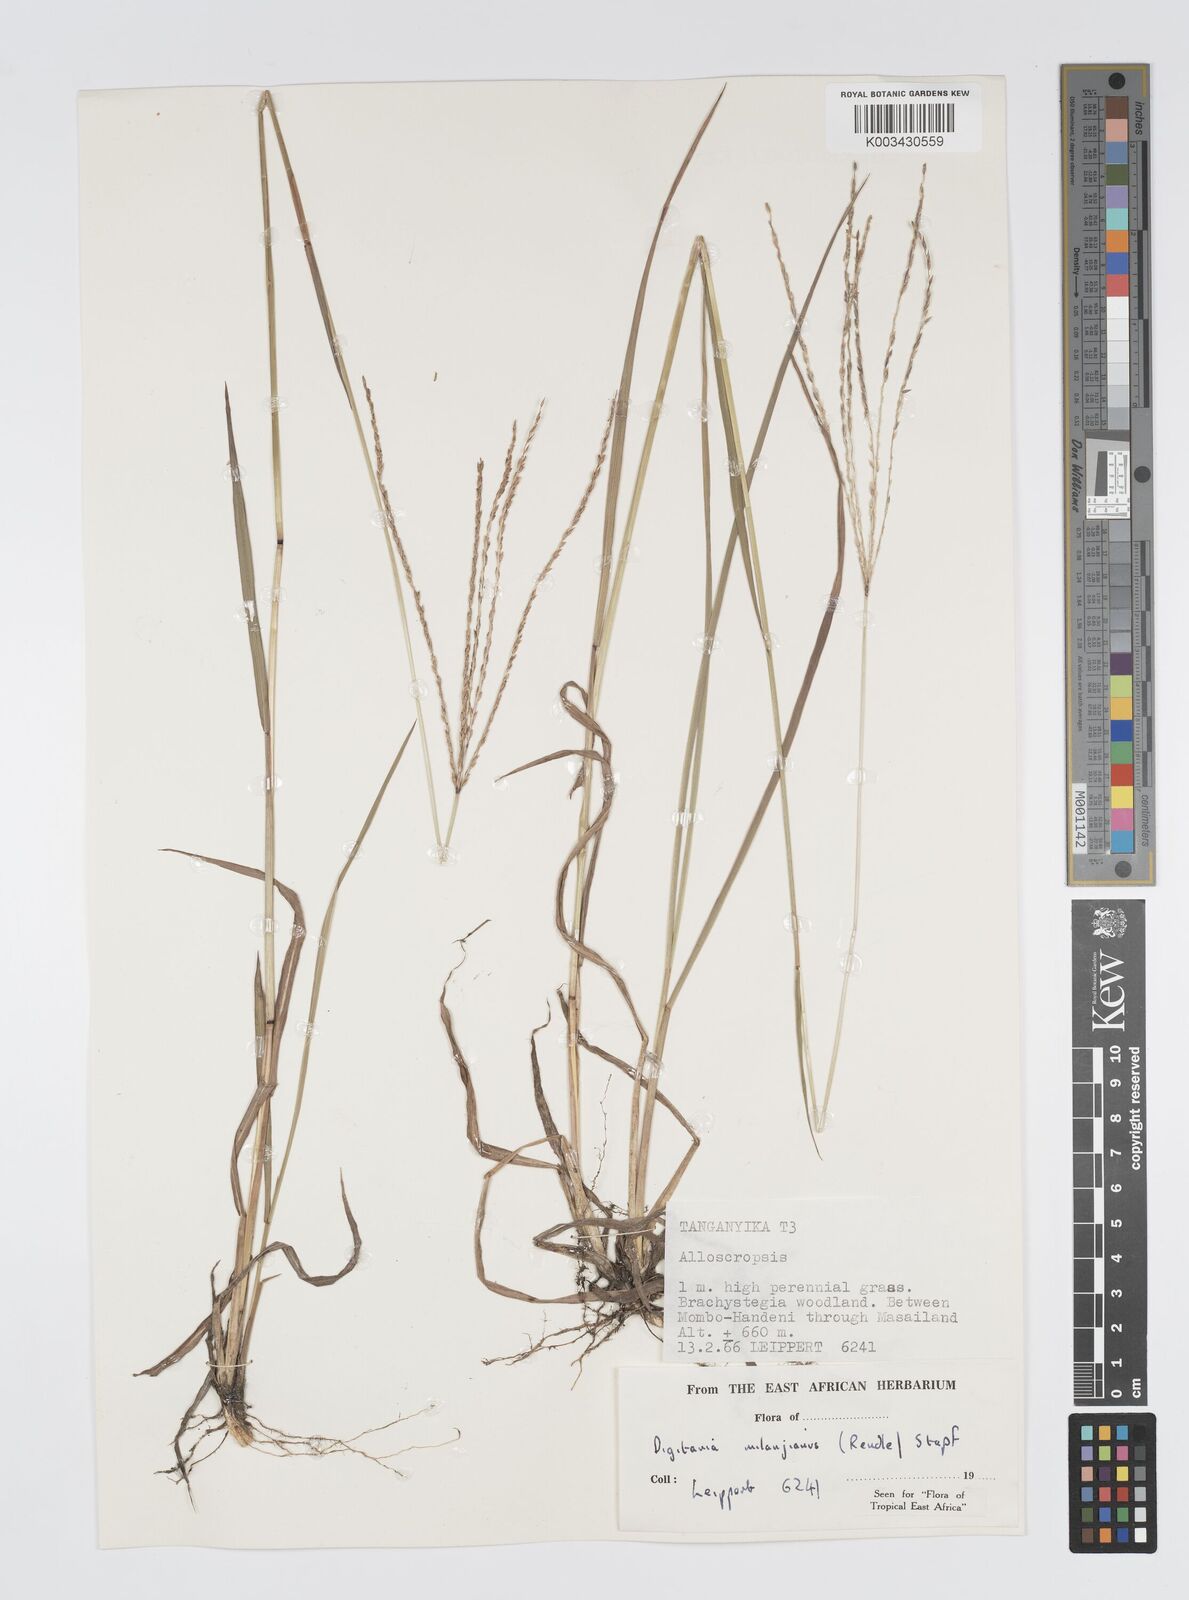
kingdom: Plantae
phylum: Tracheophyta
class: Liliopsida
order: Poales
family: Poaceae
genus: Digitaria
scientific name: Digitaria milanjiana
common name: Madagascar crabgrass
